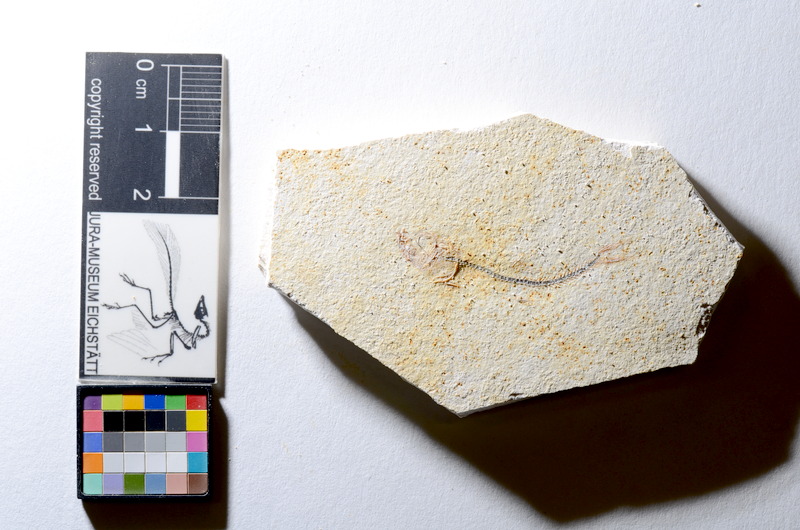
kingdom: Animalia
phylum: Chordata
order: Salmoniformes
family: Orthogonikleithridae
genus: Orthogonikleithrus
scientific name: Orthogonikleithrus hoelli
